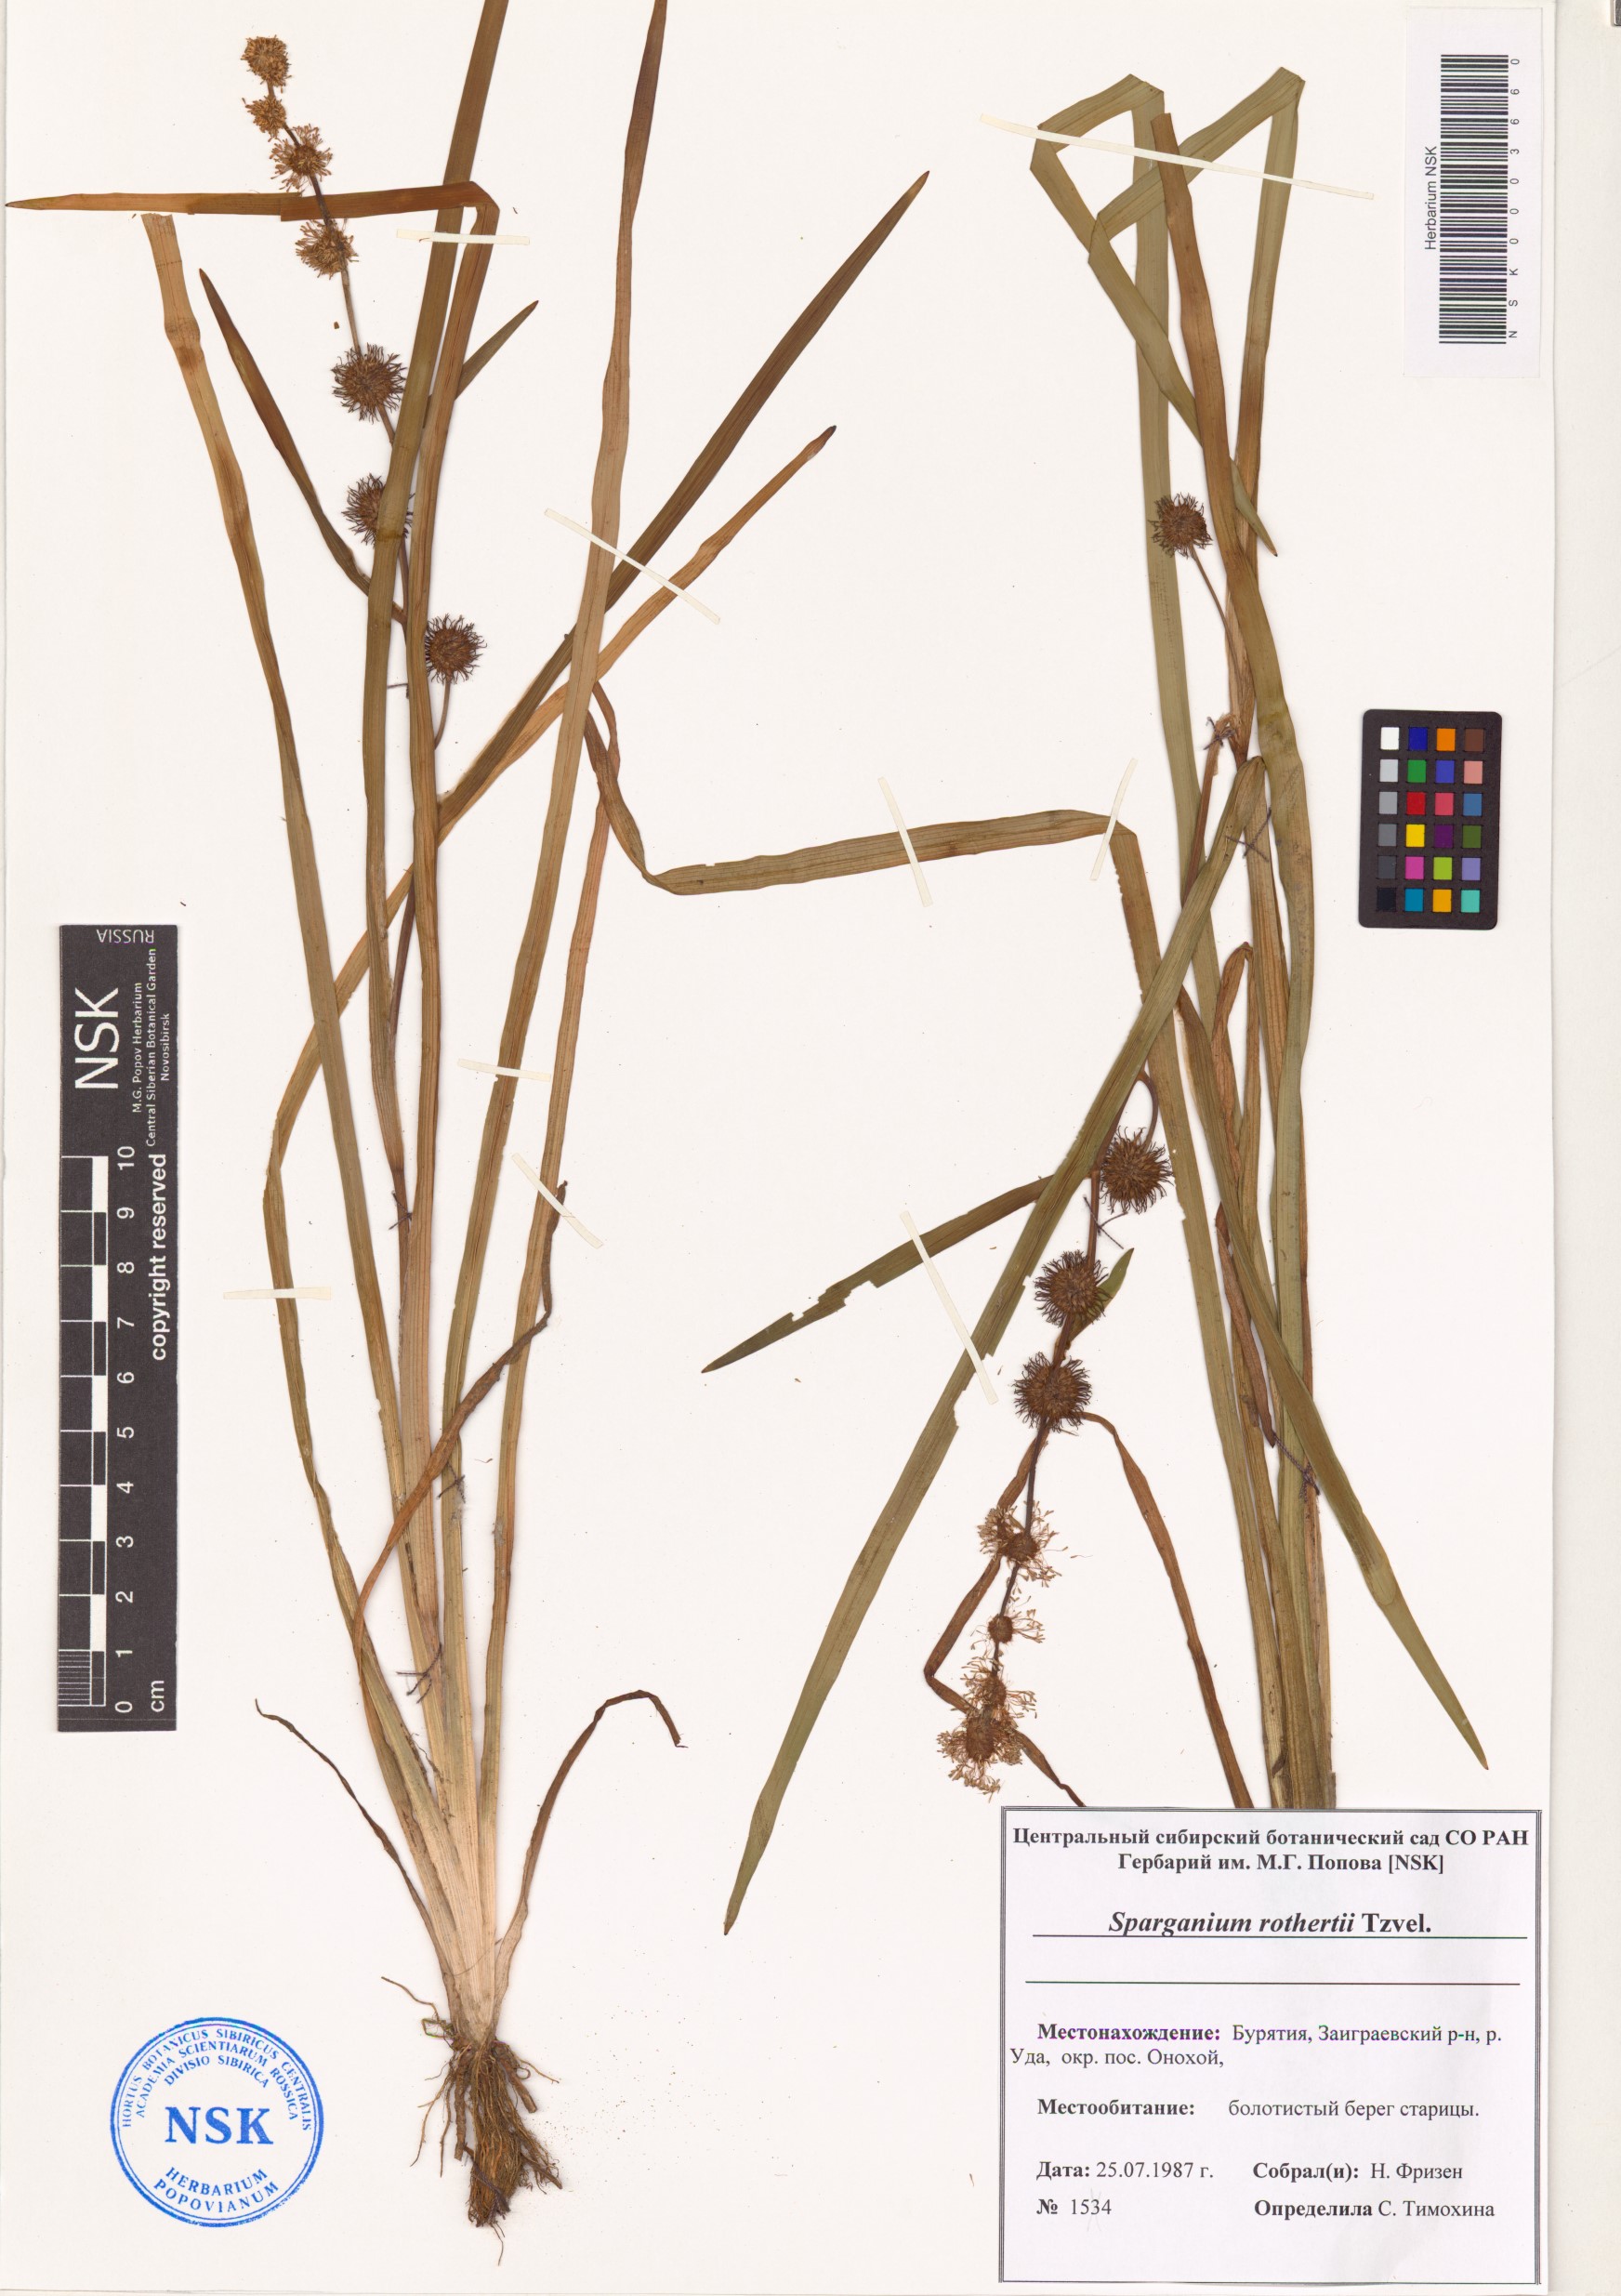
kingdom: Plantae
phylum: Tracheophyta
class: Liliopsida
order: Poales
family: Typhaceae
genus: Sparganium
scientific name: Sparganium rothertii
